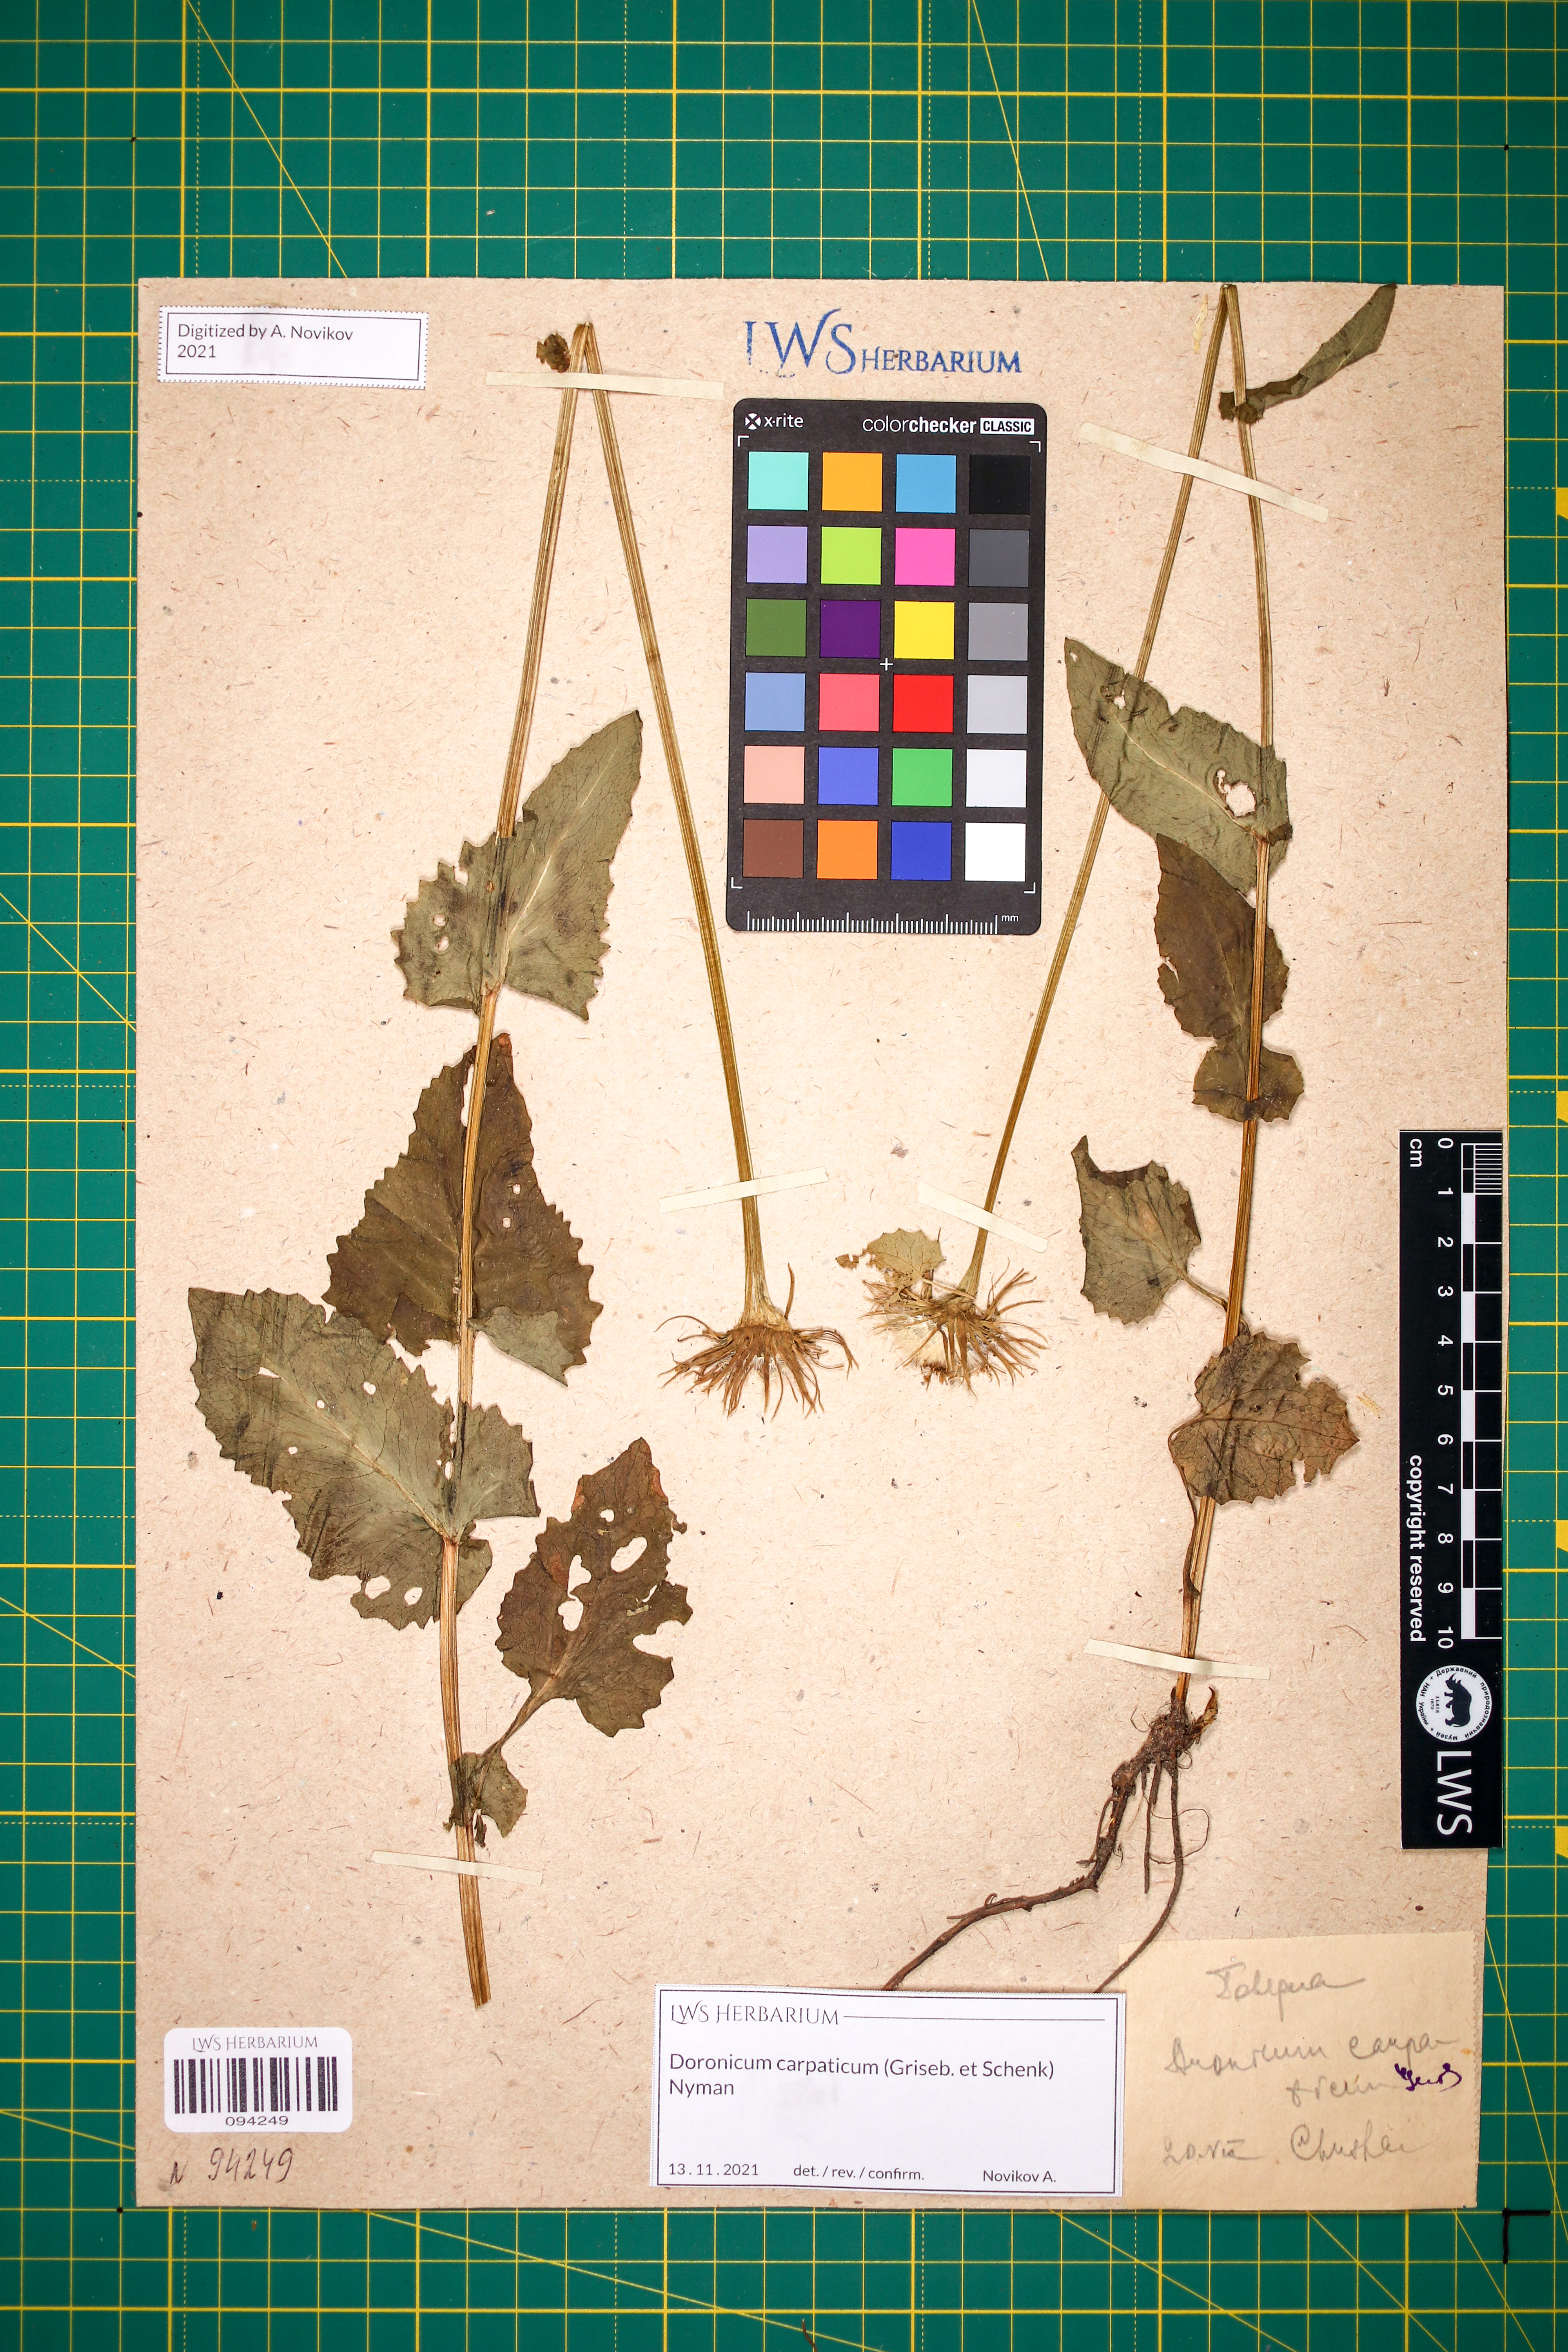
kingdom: Plantae
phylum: Tracheophyta
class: Magnoliopsida
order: Asterales
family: Asteraceae
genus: Doronicum
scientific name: Doronicum carpaticum
